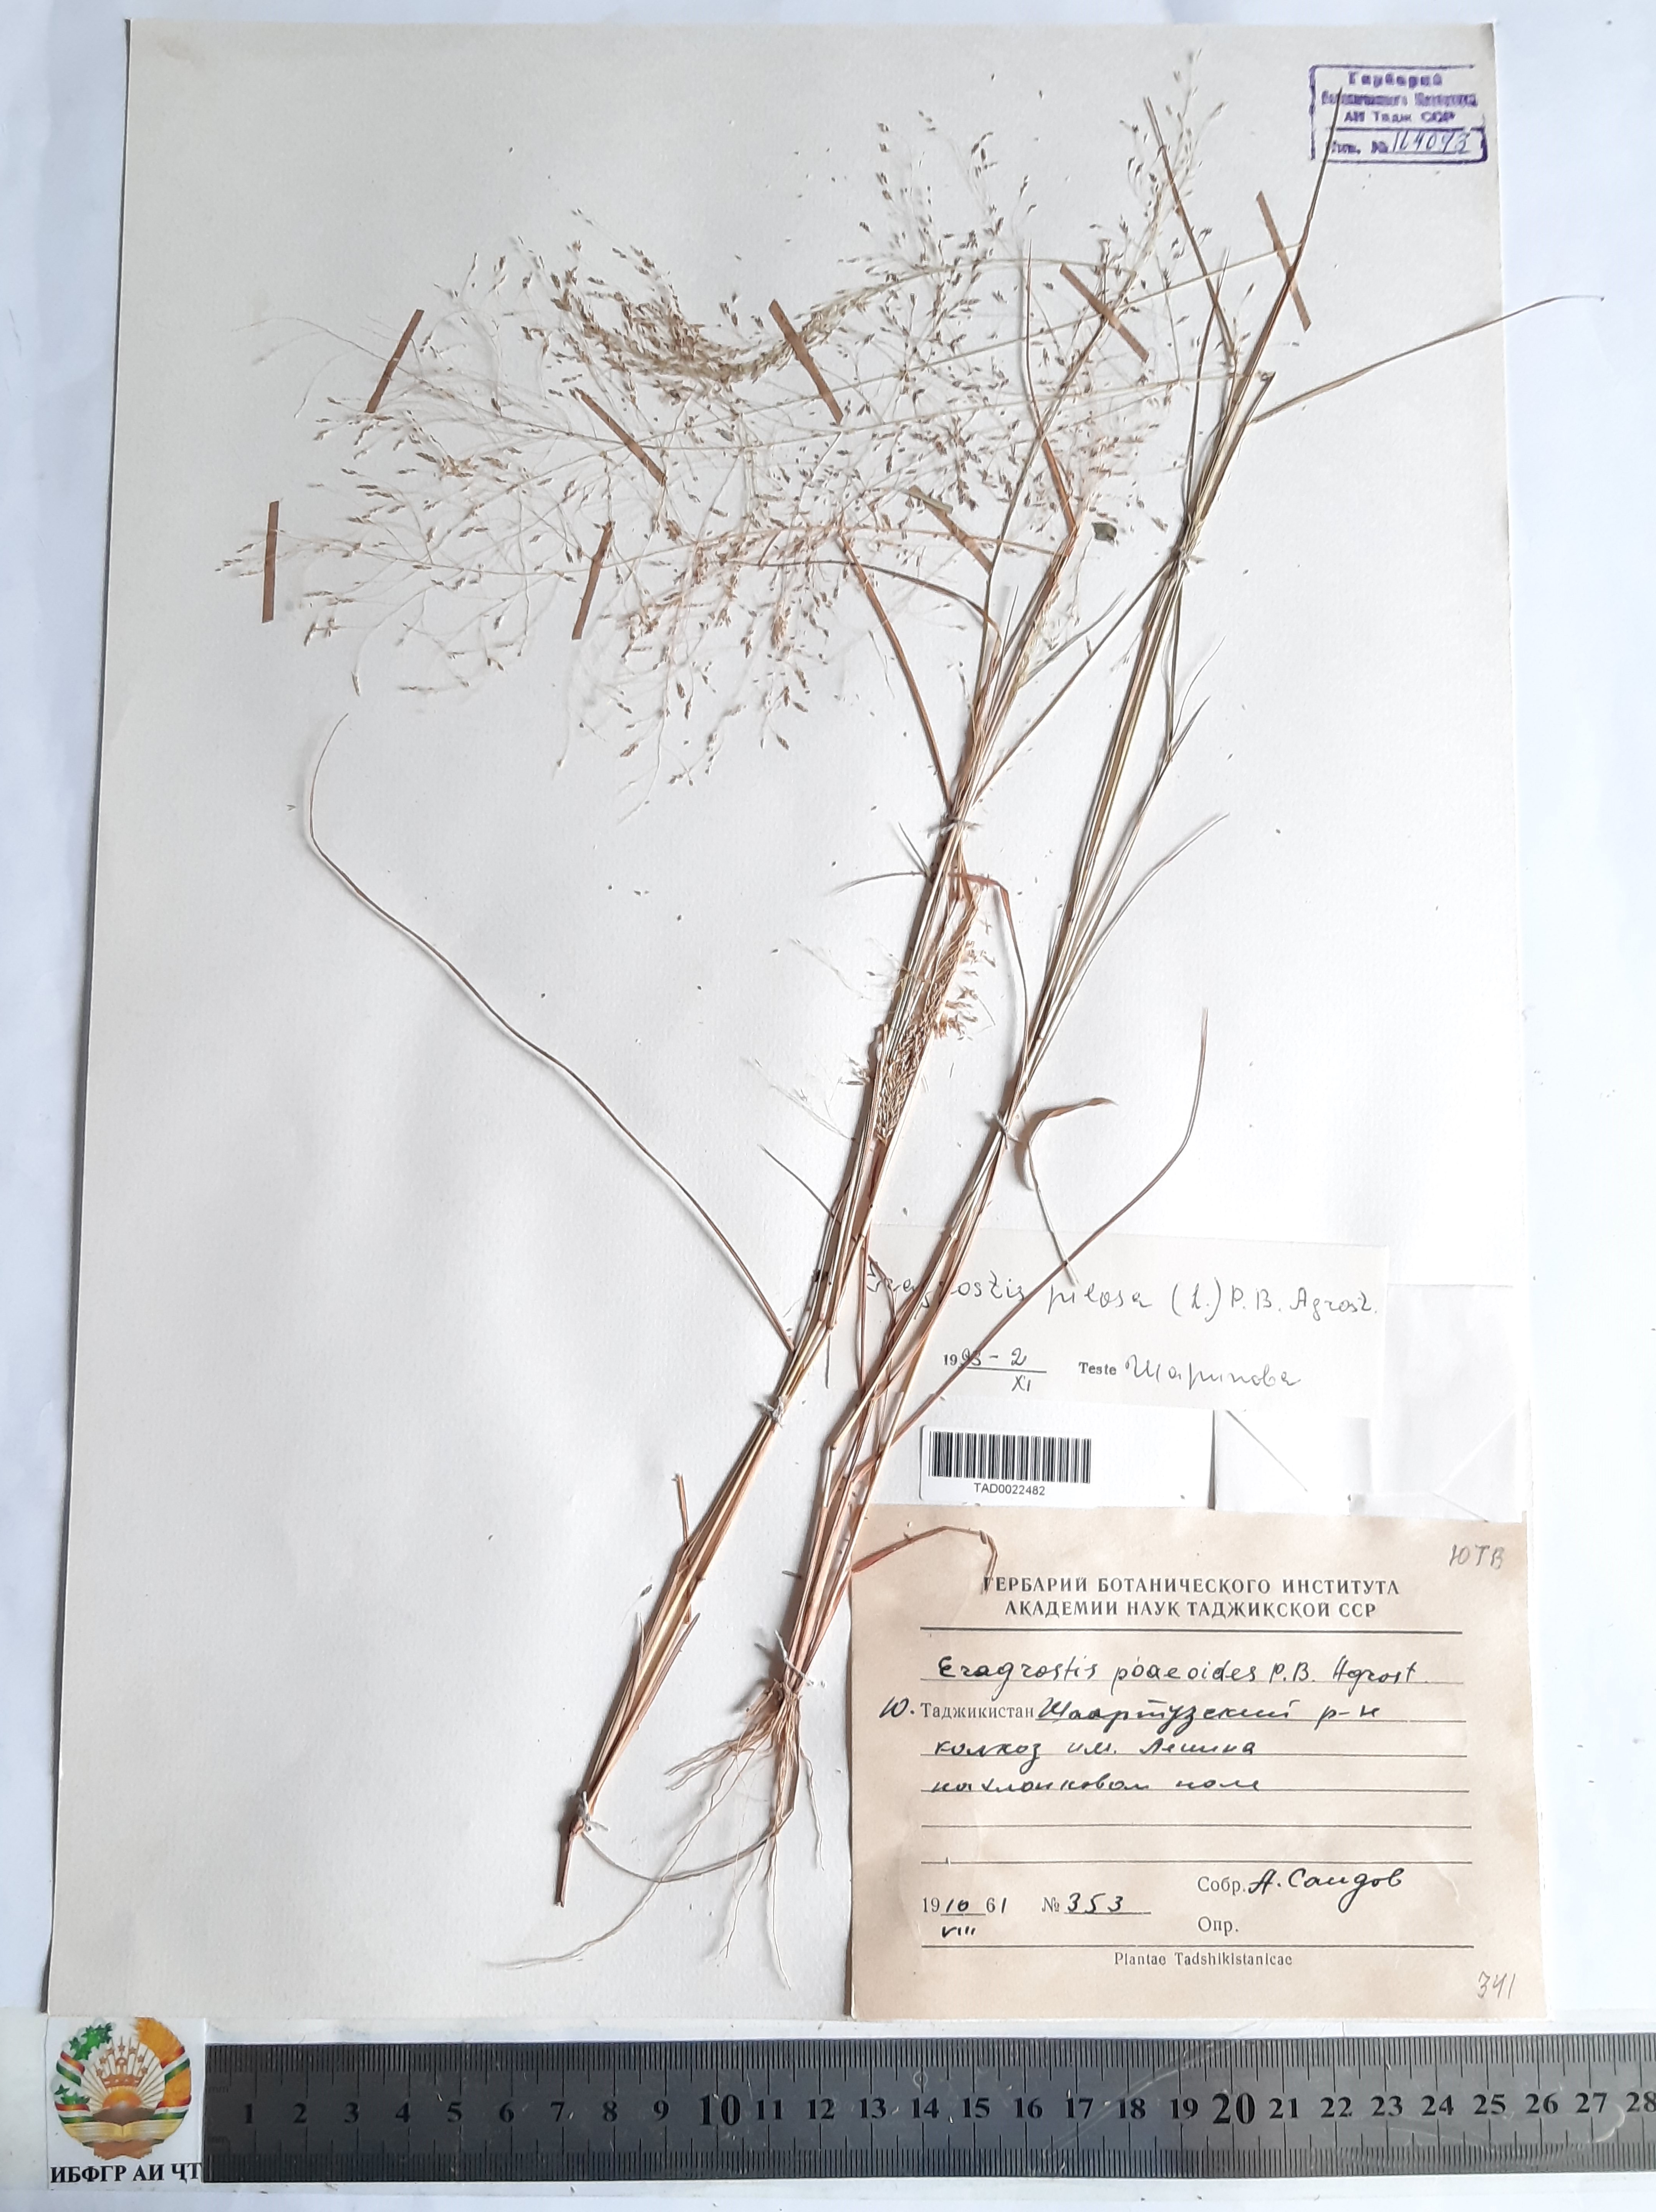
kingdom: Plantae
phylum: Tracheophyta
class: Liliopsida
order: Poales
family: Poaceae
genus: Eragrostis
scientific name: Eragrostis minor
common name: Small love-grass
